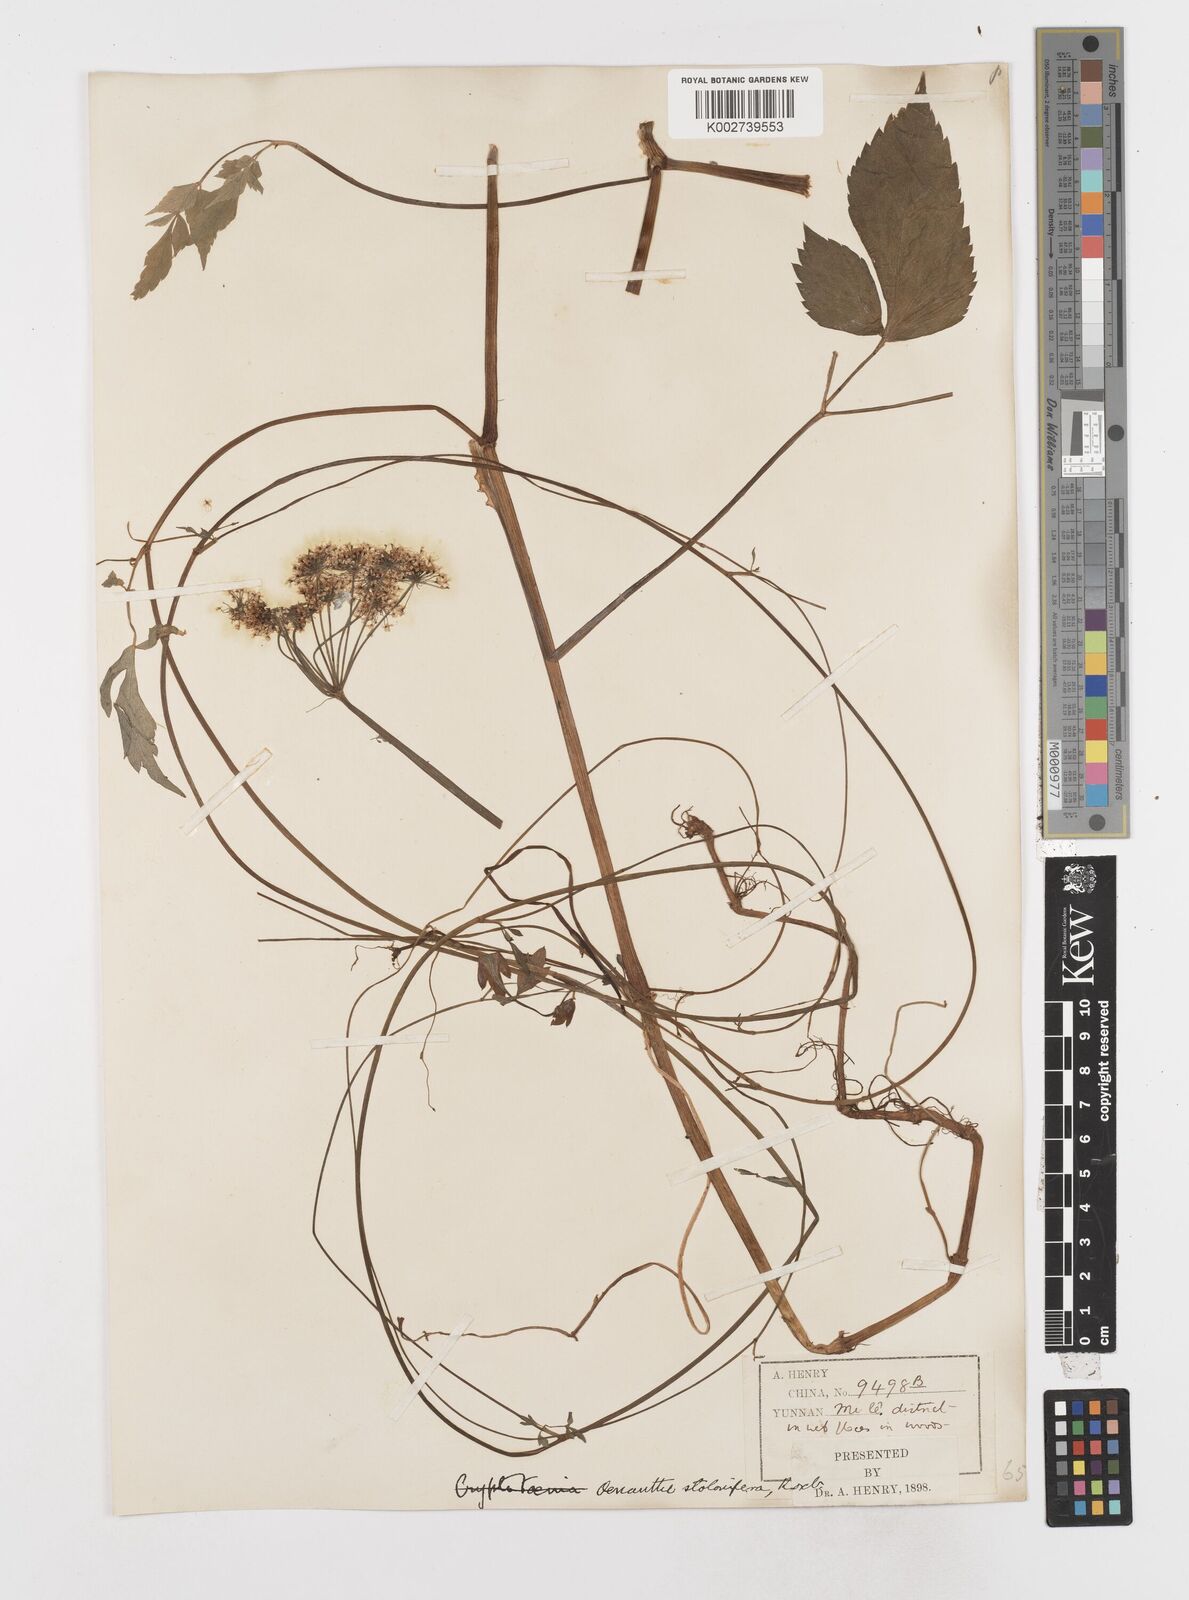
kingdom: Plantae
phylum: Tracheophyta
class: Magnoliopsida
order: Apiales
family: Apiaceae
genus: Oenanthe
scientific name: Oenanthe javanica
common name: Java water-dropwort
